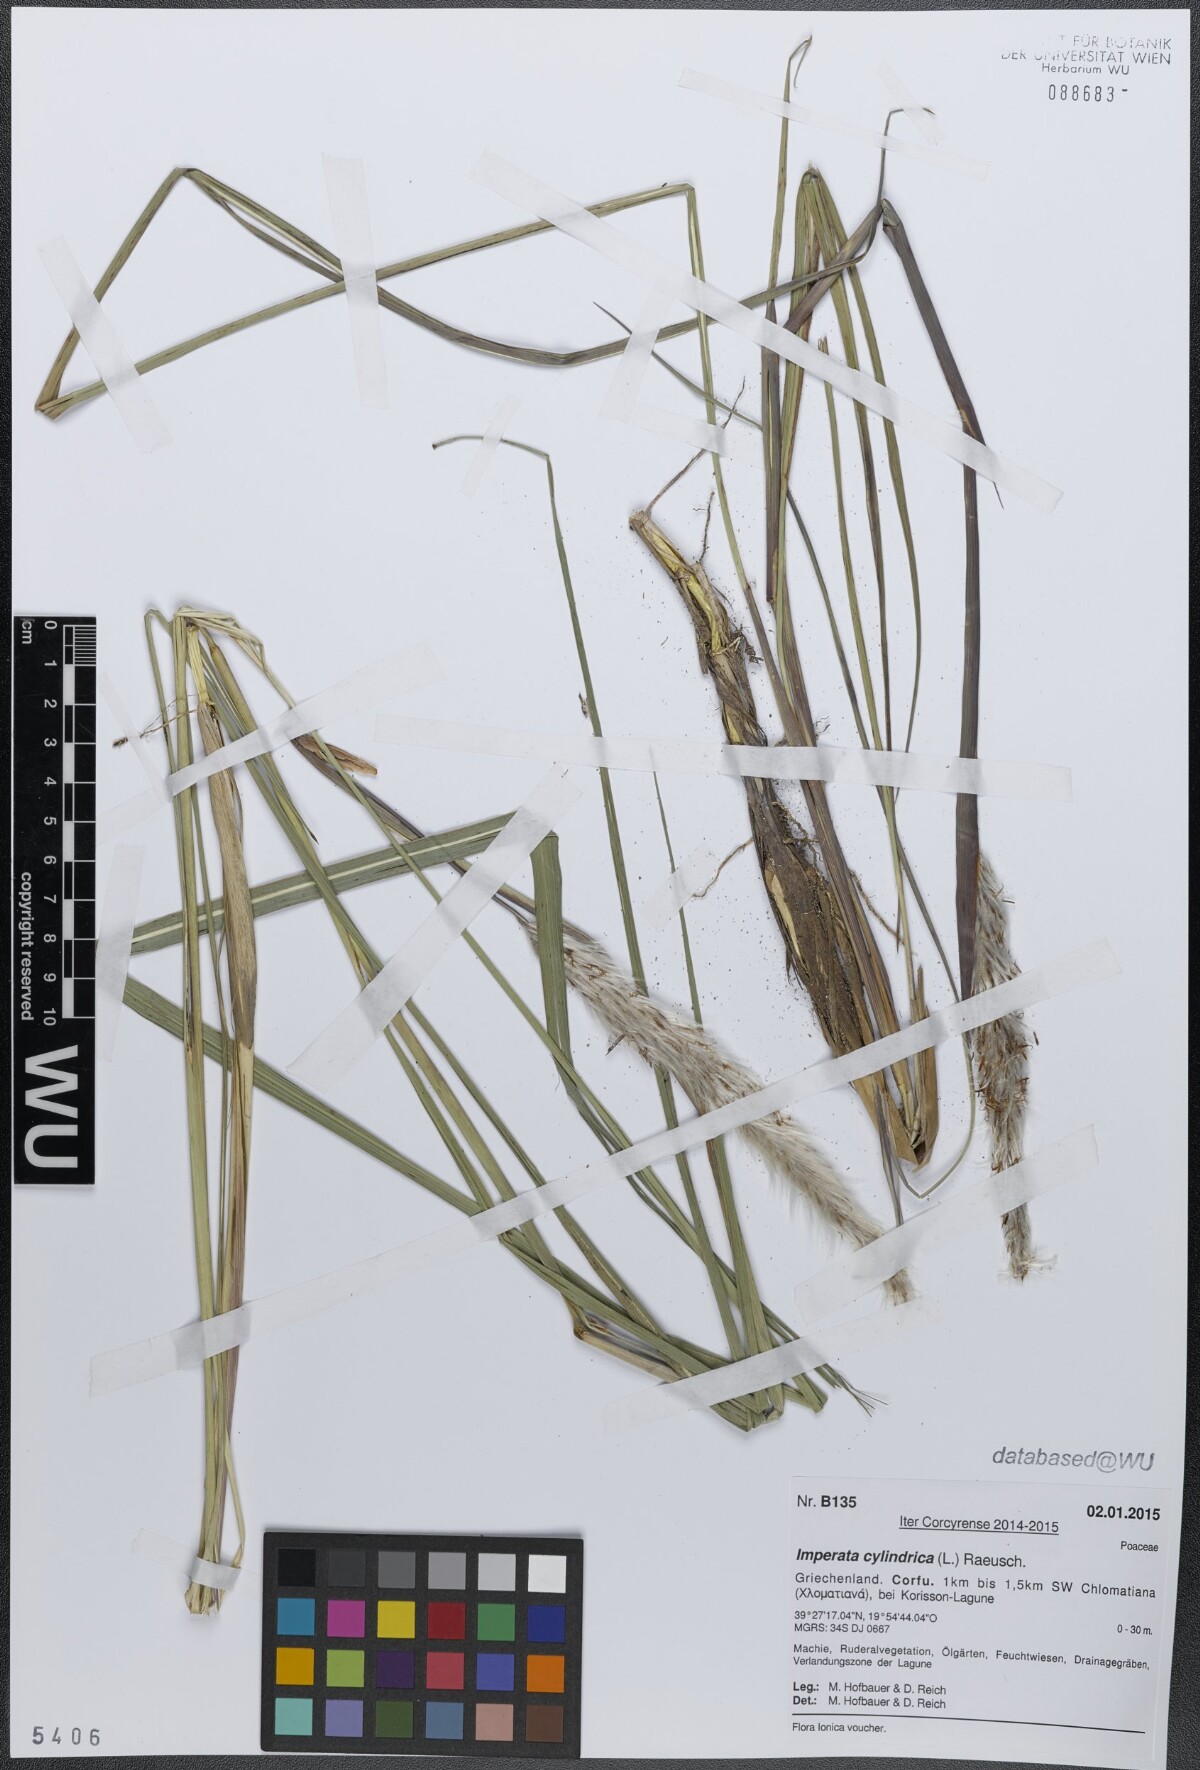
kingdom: Plantae
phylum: Tracheophyta
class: Liliopsida
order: Poales
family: Poaceae
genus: Imperata
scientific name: Imperata cylindrica
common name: Cogongrass
